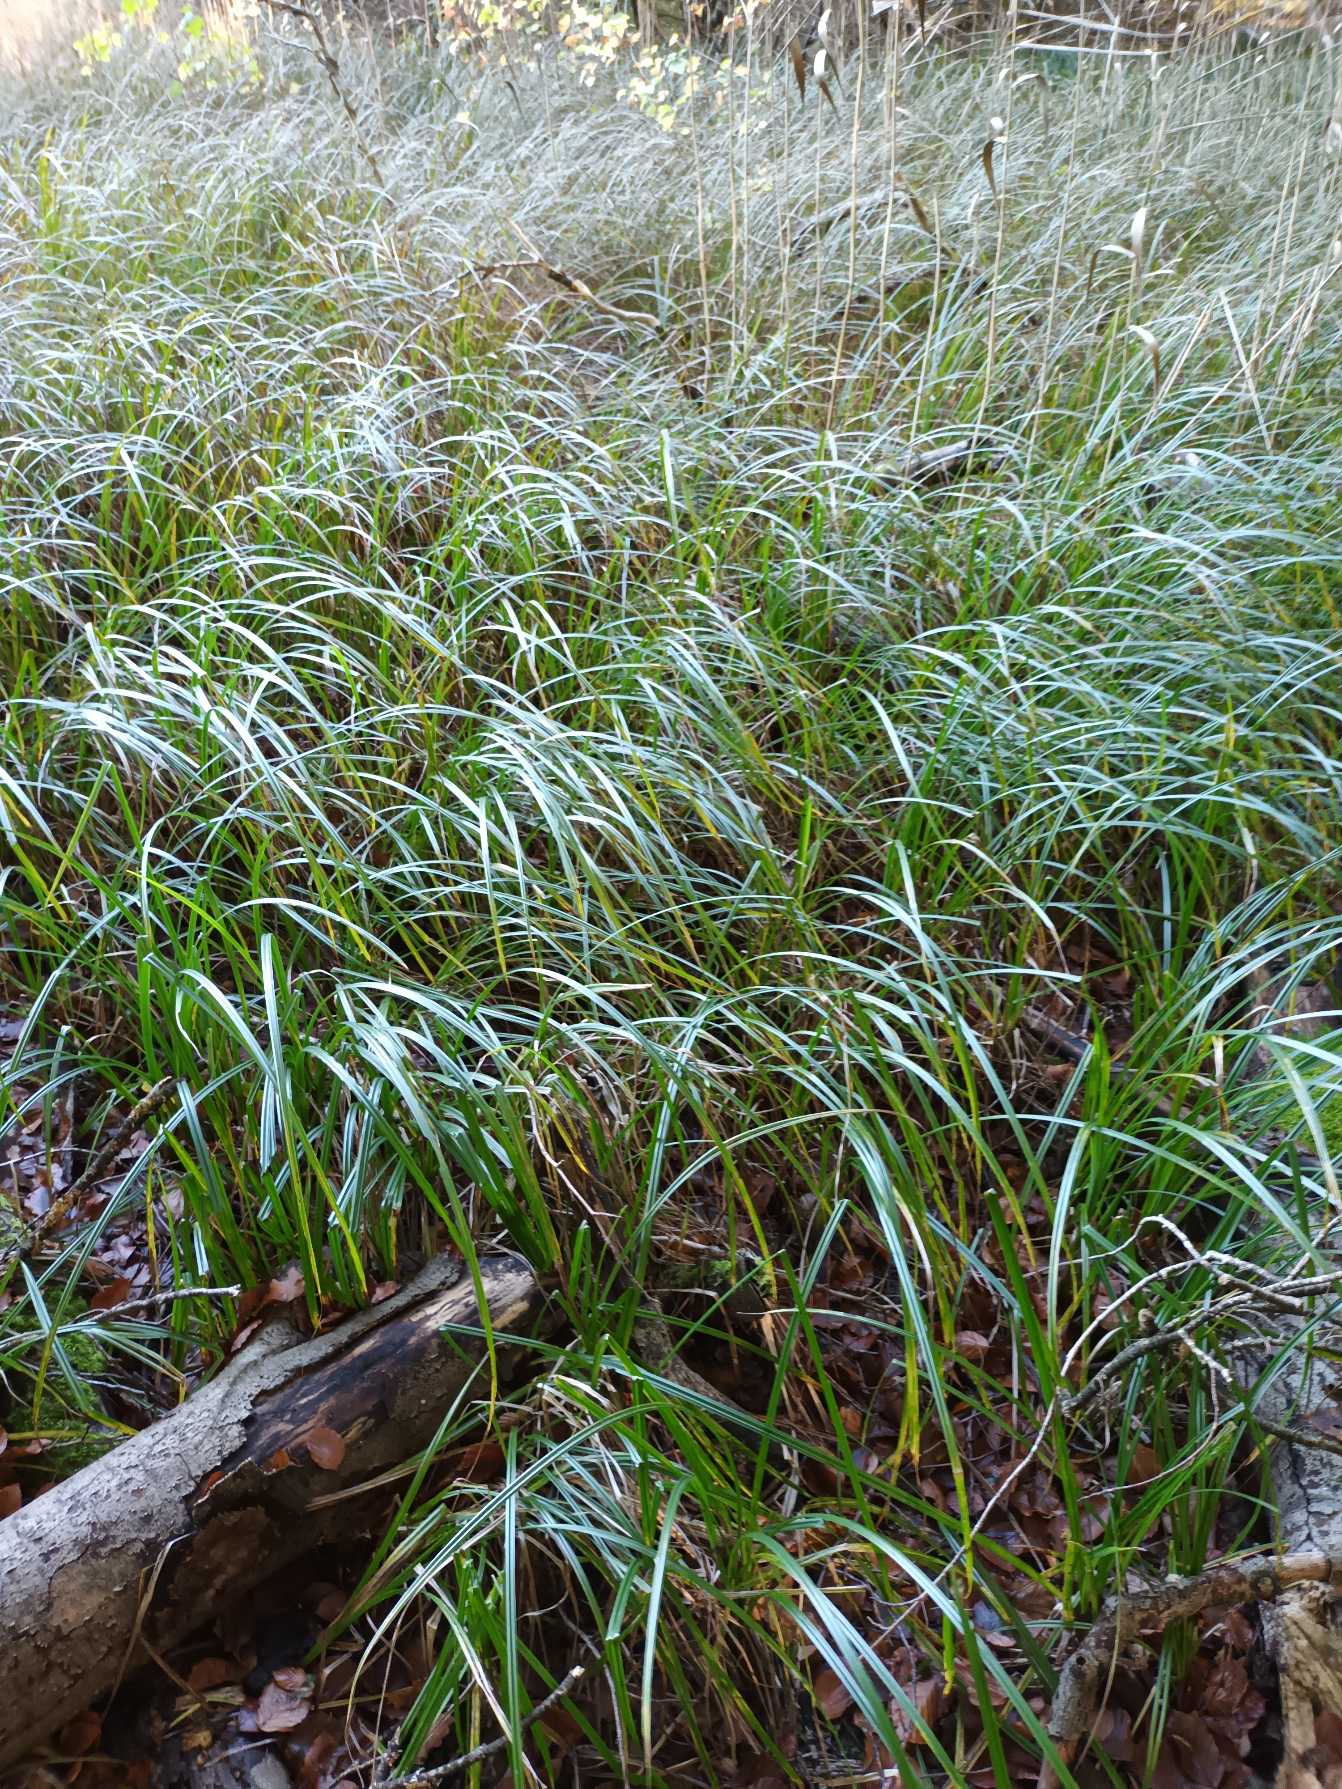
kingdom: Plantae
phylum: Tracheophyta
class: Liliopsida
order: Poales
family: Cyperaceae
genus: Carex
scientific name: Carex acutiformis
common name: Kær-star
